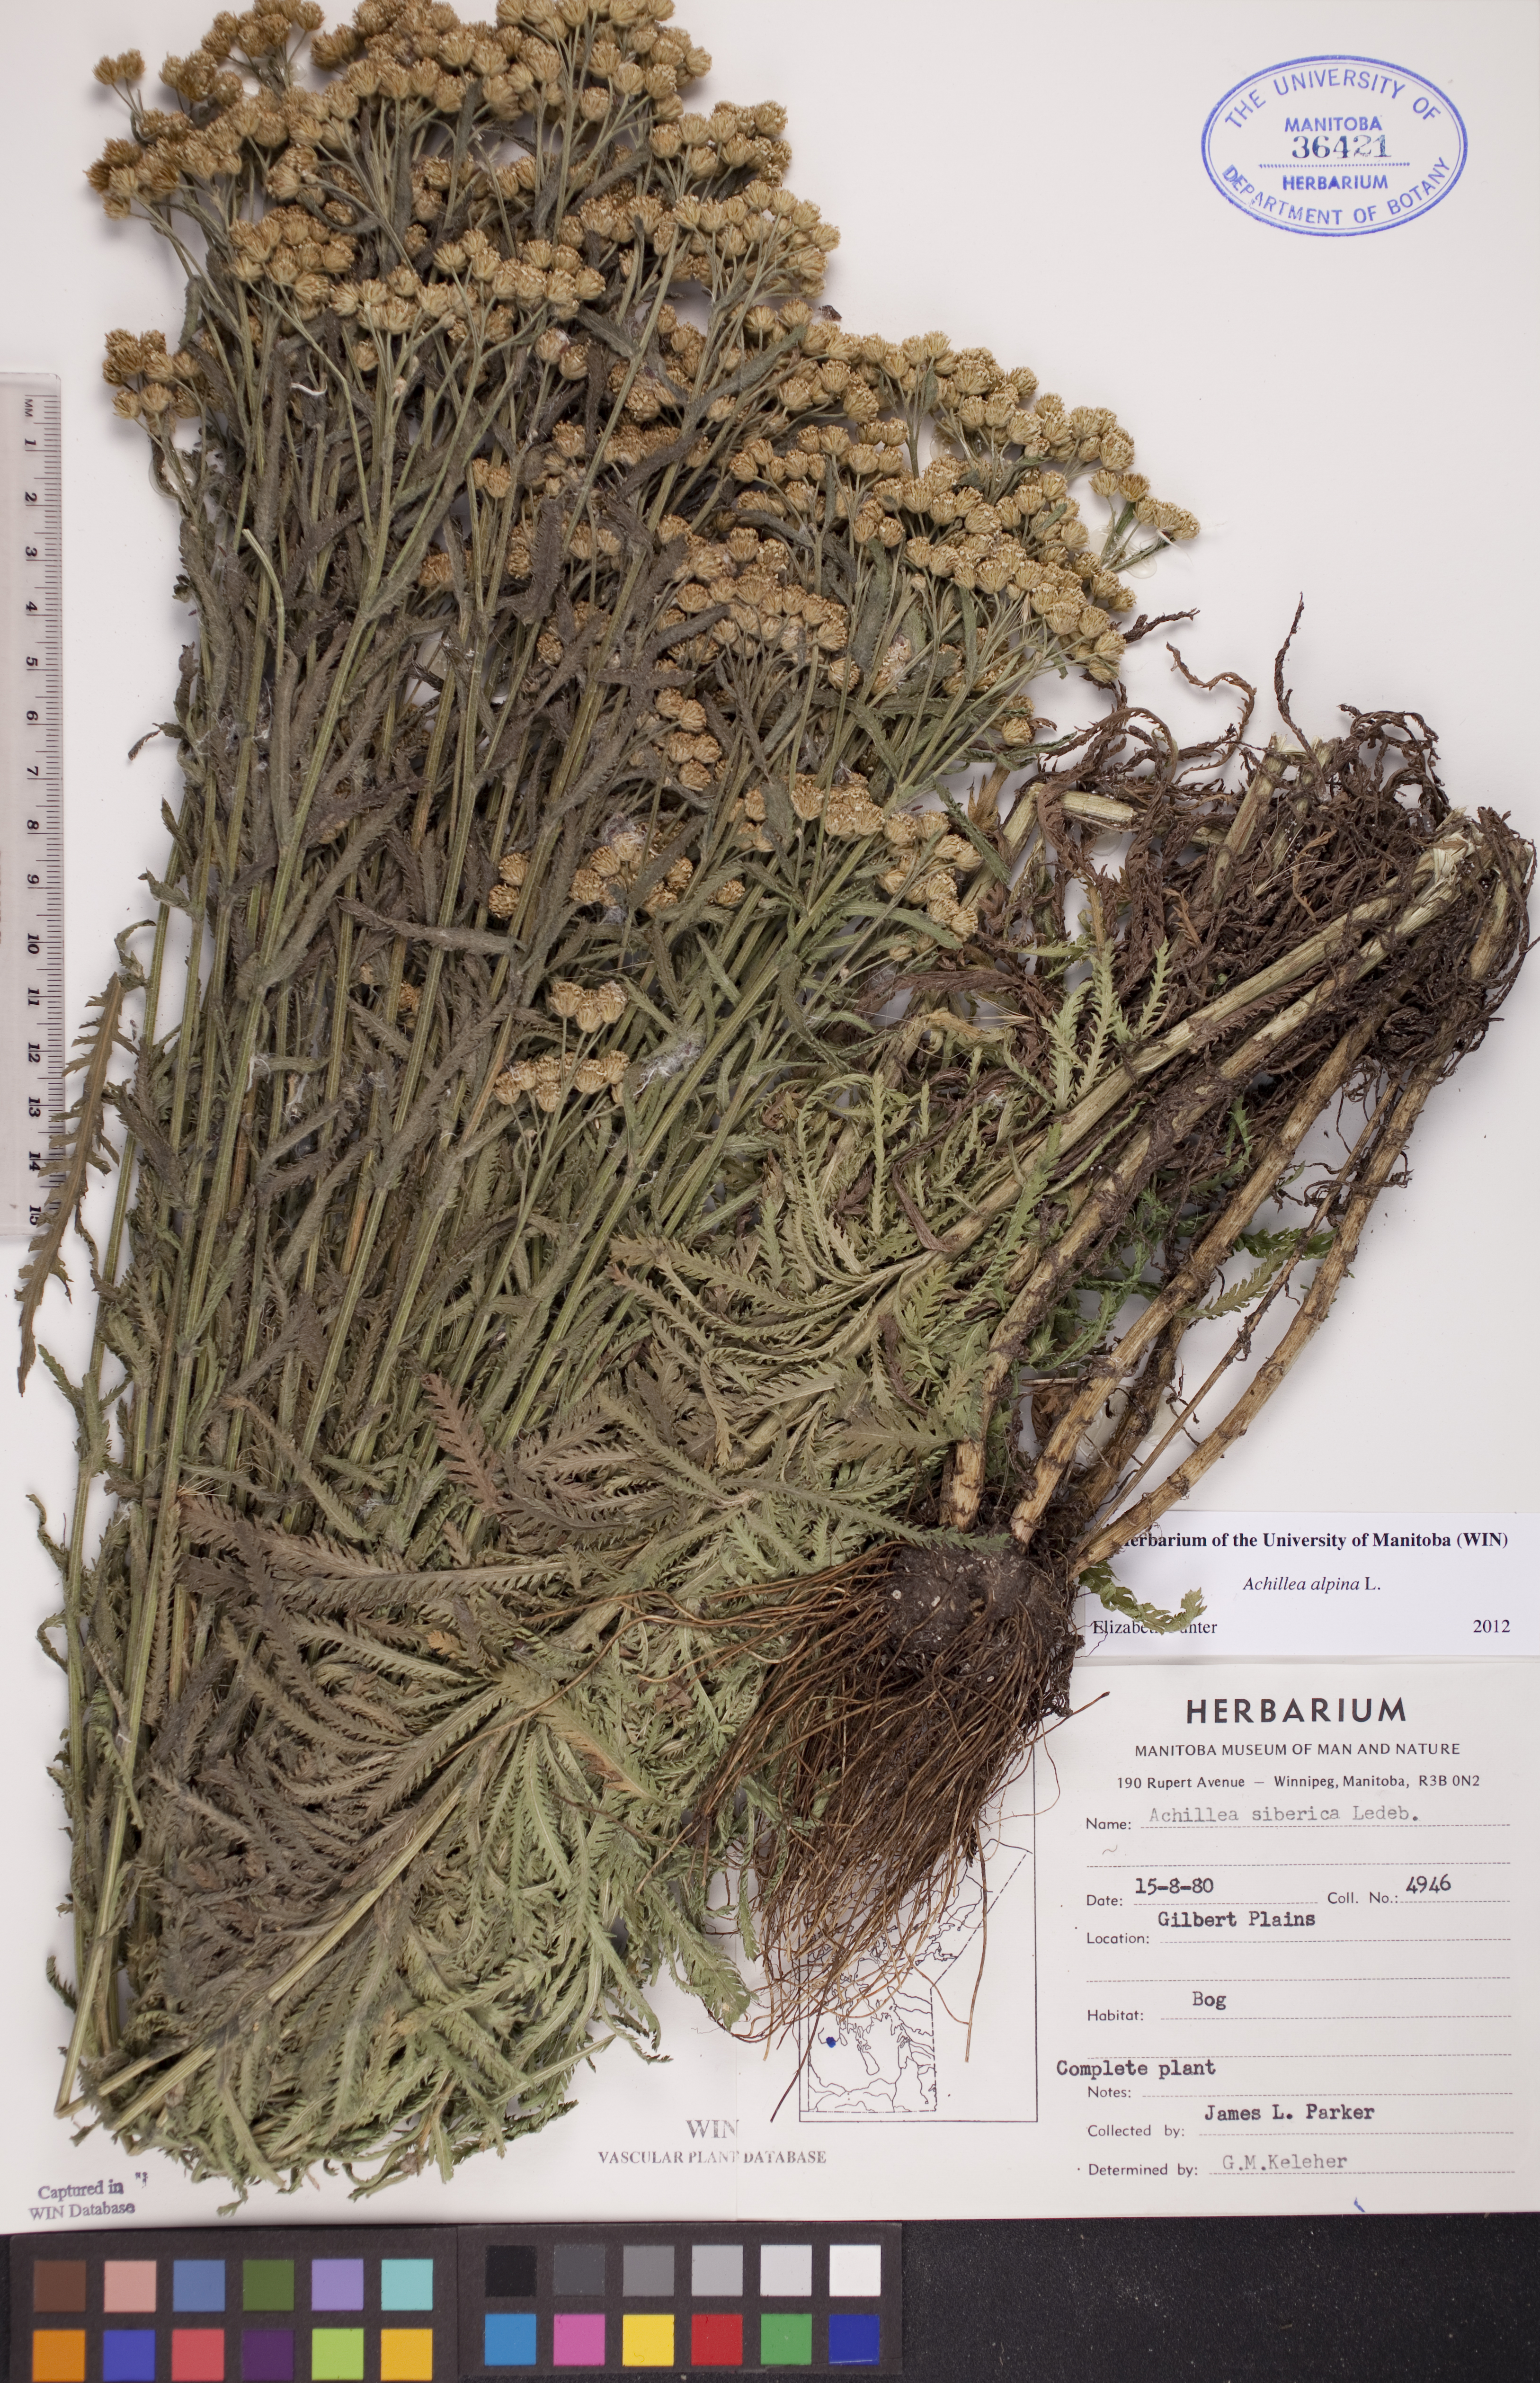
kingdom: Plantae
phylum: Tracheophyta
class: Magnoliopsida
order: Asterales
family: Asteraceae
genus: Achillea
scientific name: Achillea alpina
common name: Siberian yarrow
